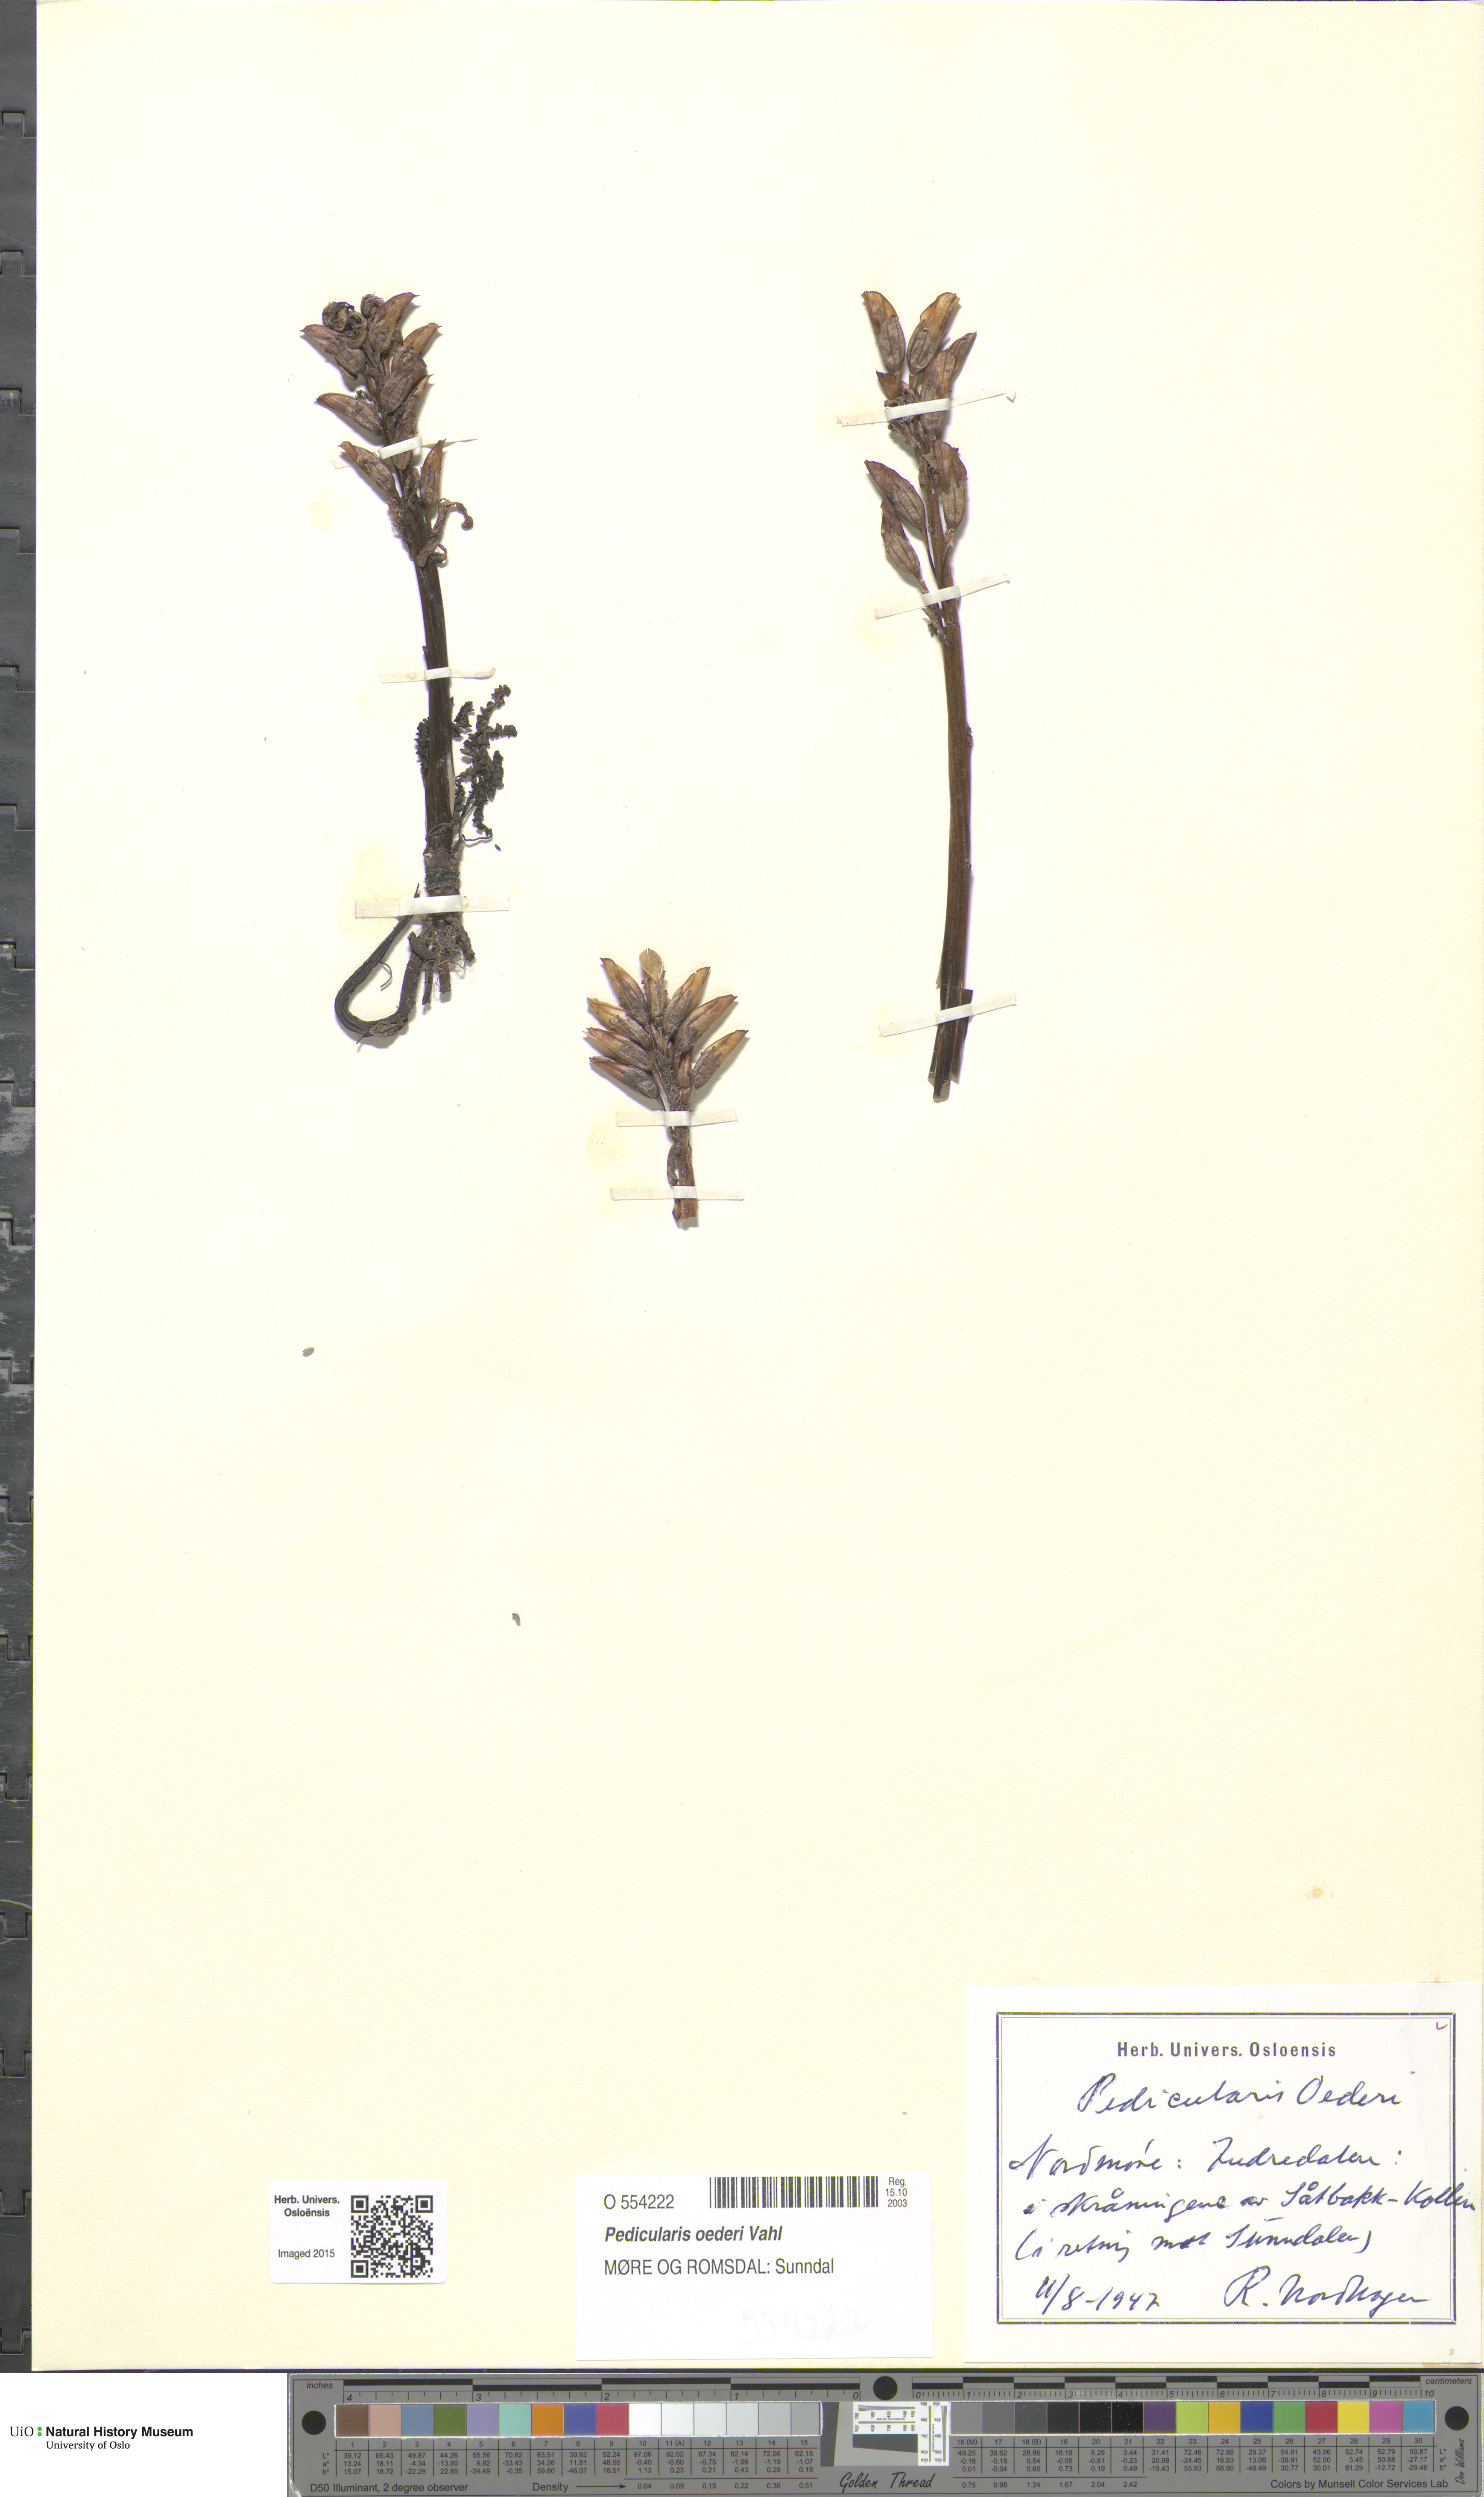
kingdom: Plantae
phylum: Tracheophyta
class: Magnoliopsida
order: Lamiales
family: Orobanchaceae
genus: Pedicularis
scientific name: Pedicularis oederi
